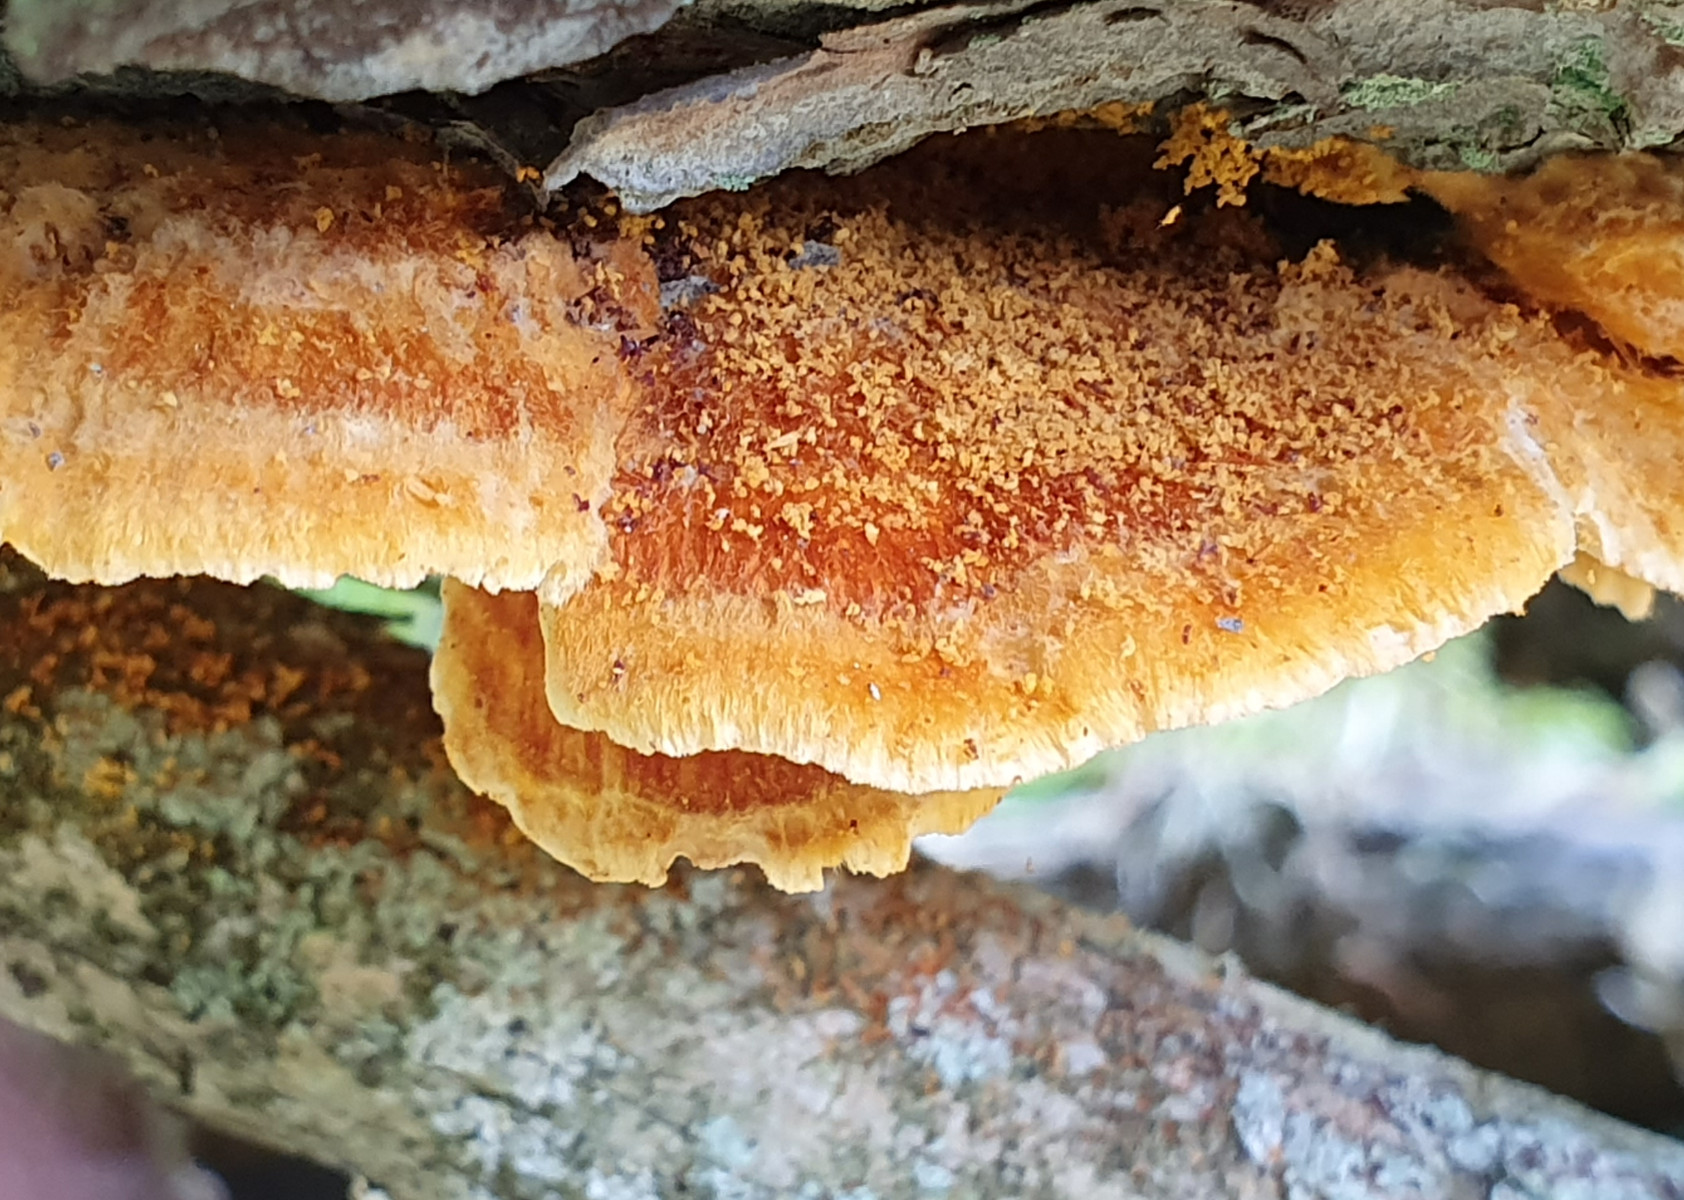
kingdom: Fungi
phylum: Basidiomycota
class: Agaricomycetes
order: Polyporales
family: Pycnoporellaceae
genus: Pycnoporellus
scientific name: Pycnoporellus fulgens
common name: flammeporesvamp
